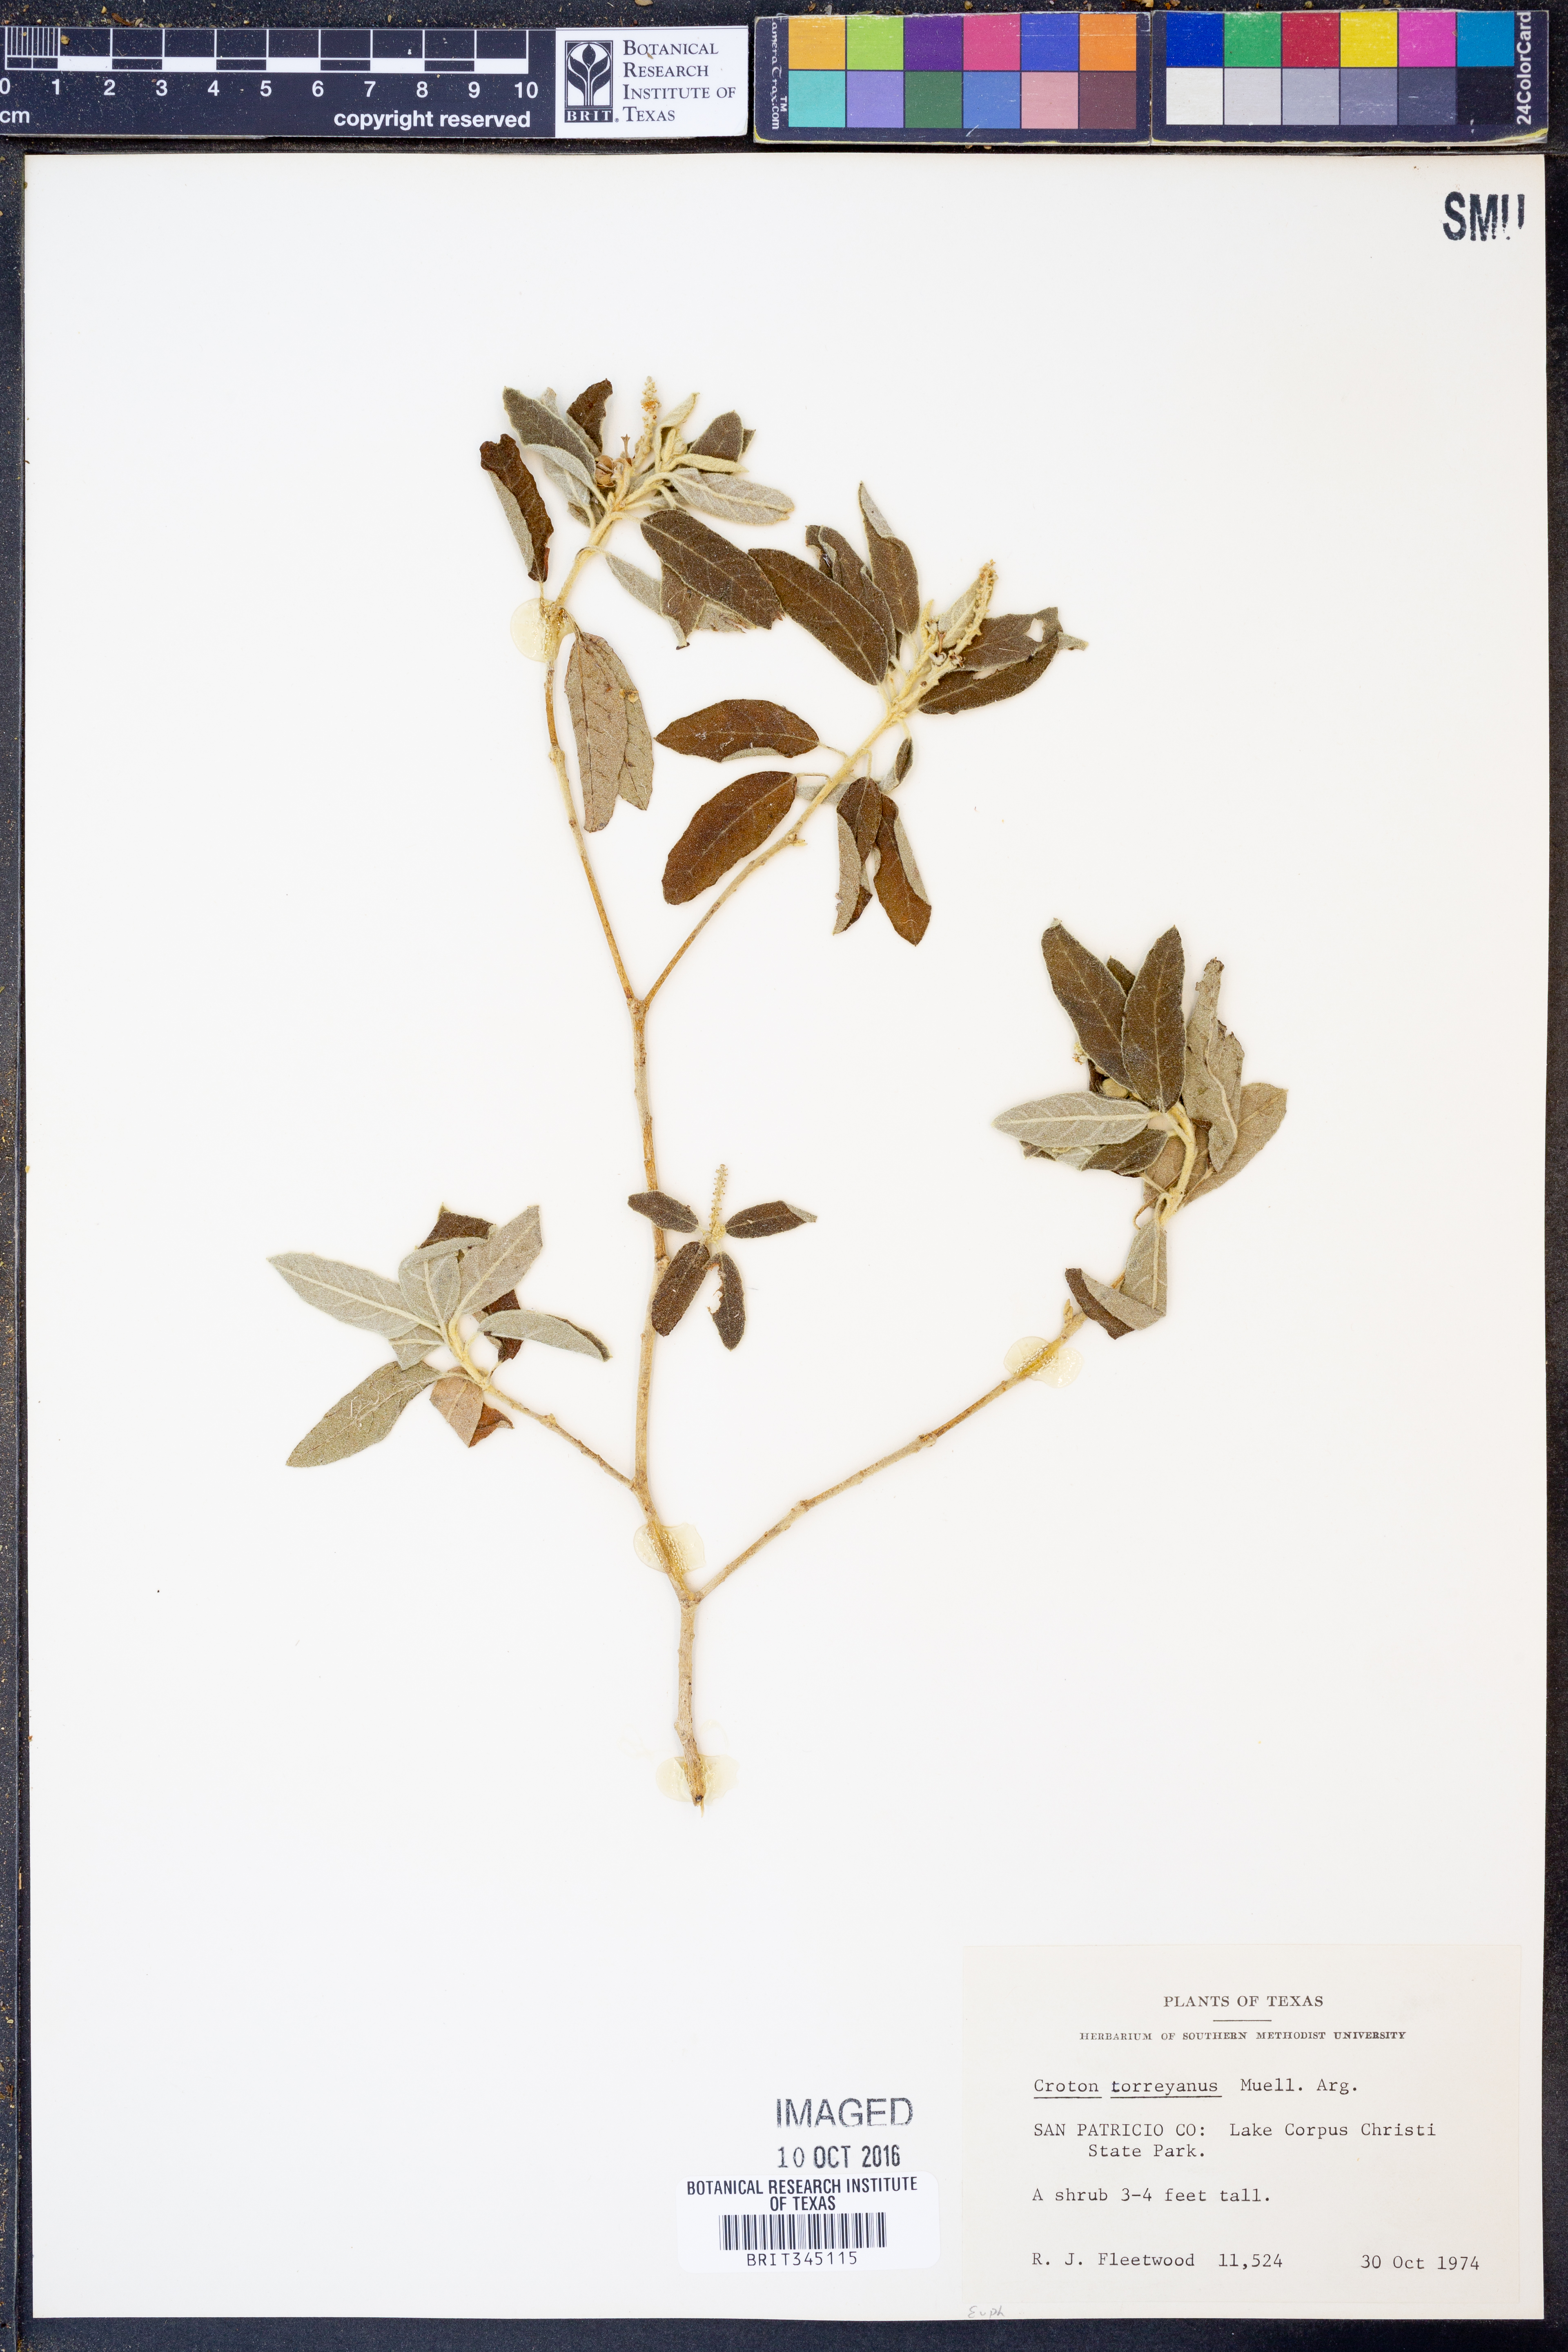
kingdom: Plantae
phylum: Tracheophyta
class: Magnoliopsida
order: Malpighiales
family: Euphorbiaceae
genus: Croton
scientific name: Croton incanus
